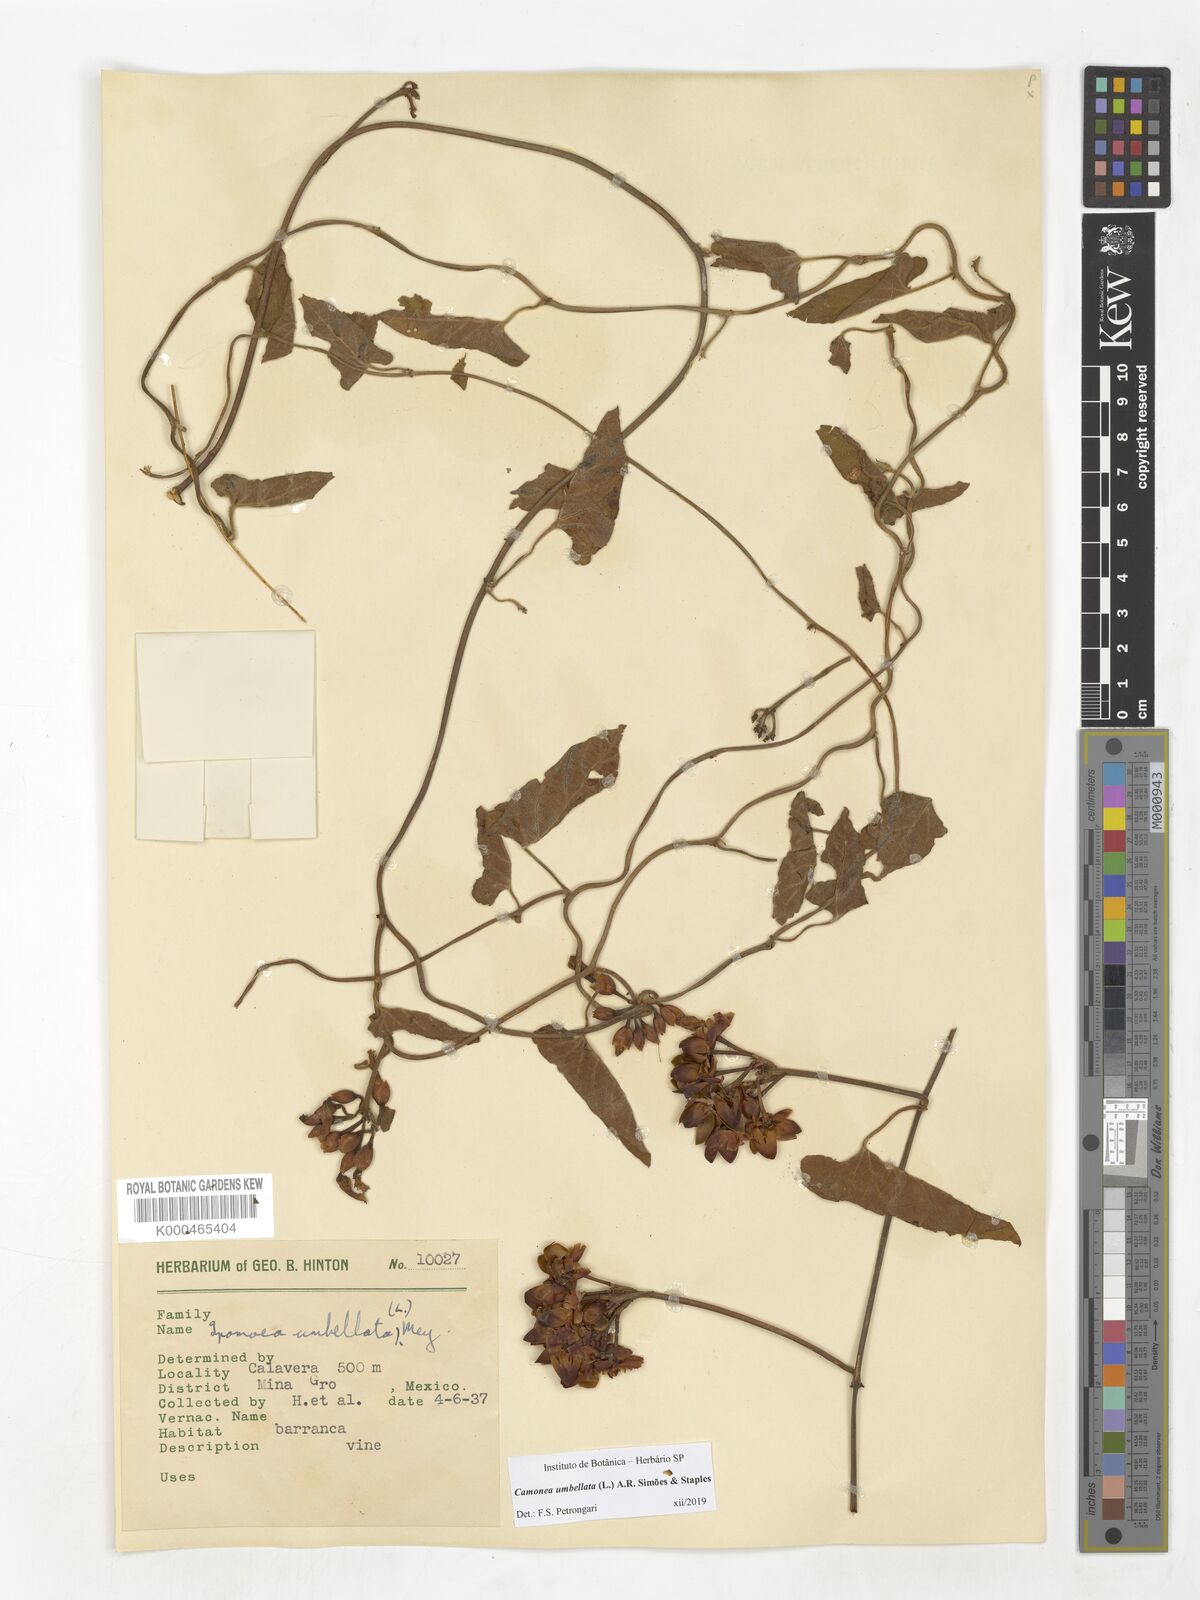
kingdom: Plantae
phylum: Tracheophyta
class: Magnoliopsida
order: Solanales
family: Convolvulaceae
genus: Camonea
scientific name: Camonea umbellata
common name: Hogvine
